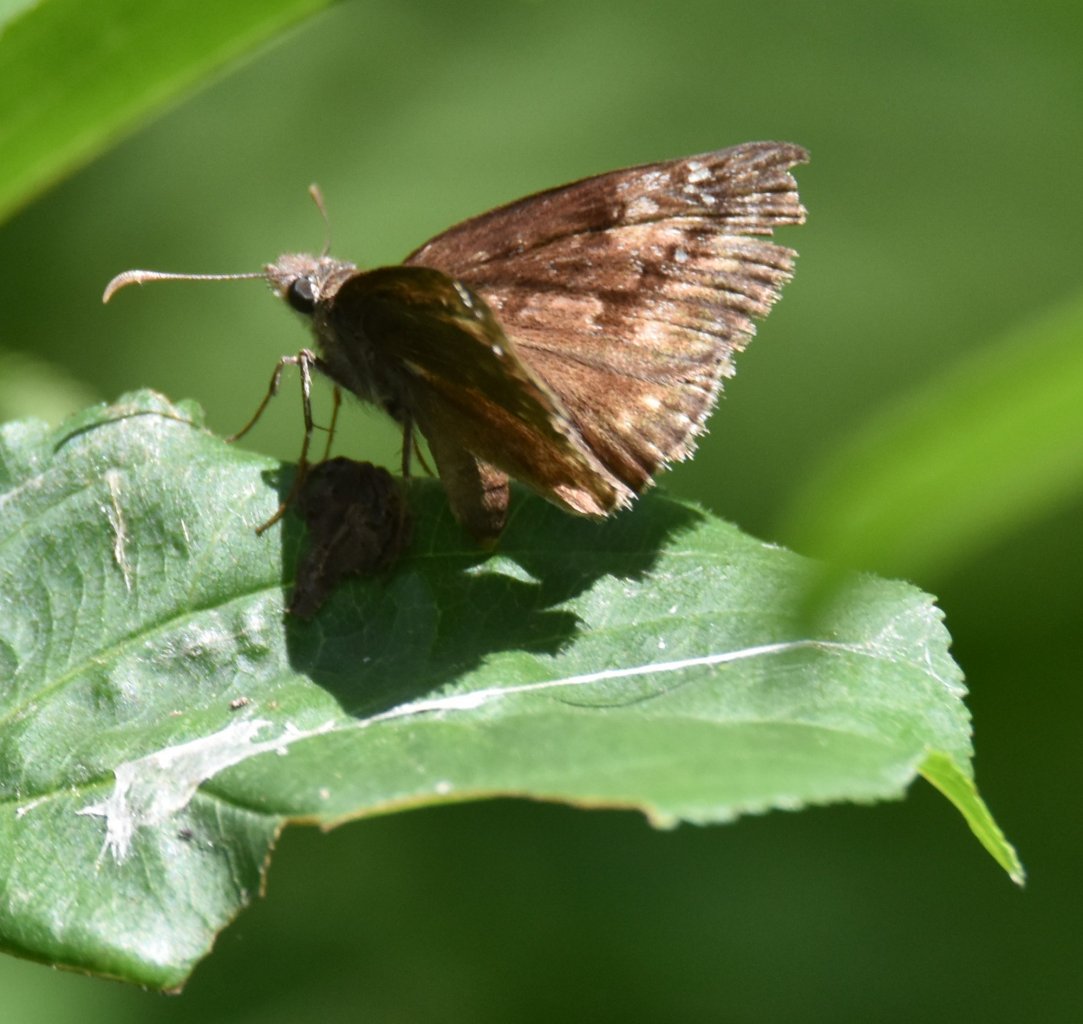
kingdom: Animalia
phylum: Arthropoda
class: Insecta
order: Lepidoptera
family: Hesperiidae
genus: Gesta
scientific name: Gesta
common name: Wild Indigo Duskywing
